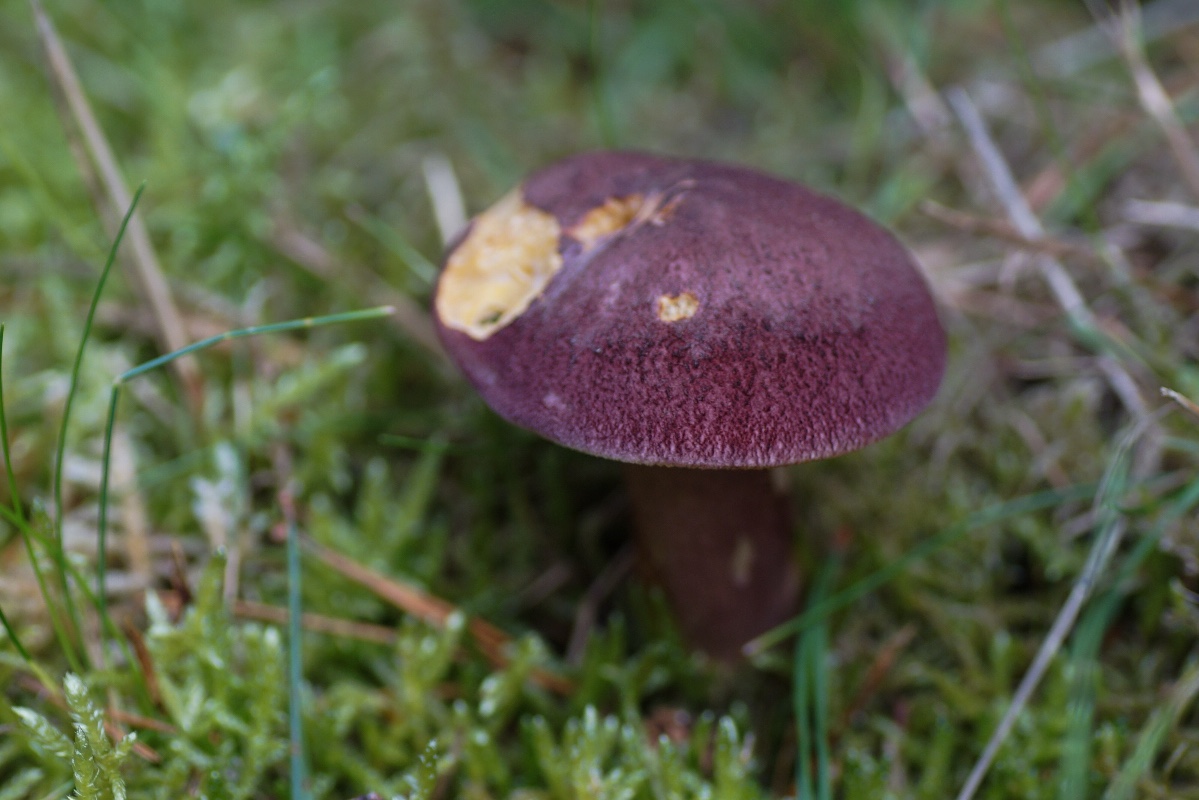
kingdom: Fungi
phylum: Basidiomycota
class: Agaricomycetes
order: Agaricales
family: Tricholomataceae
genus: Tricholomopsis
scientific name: Tricholomopsis rutilans
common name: purpur-væbnerhat
